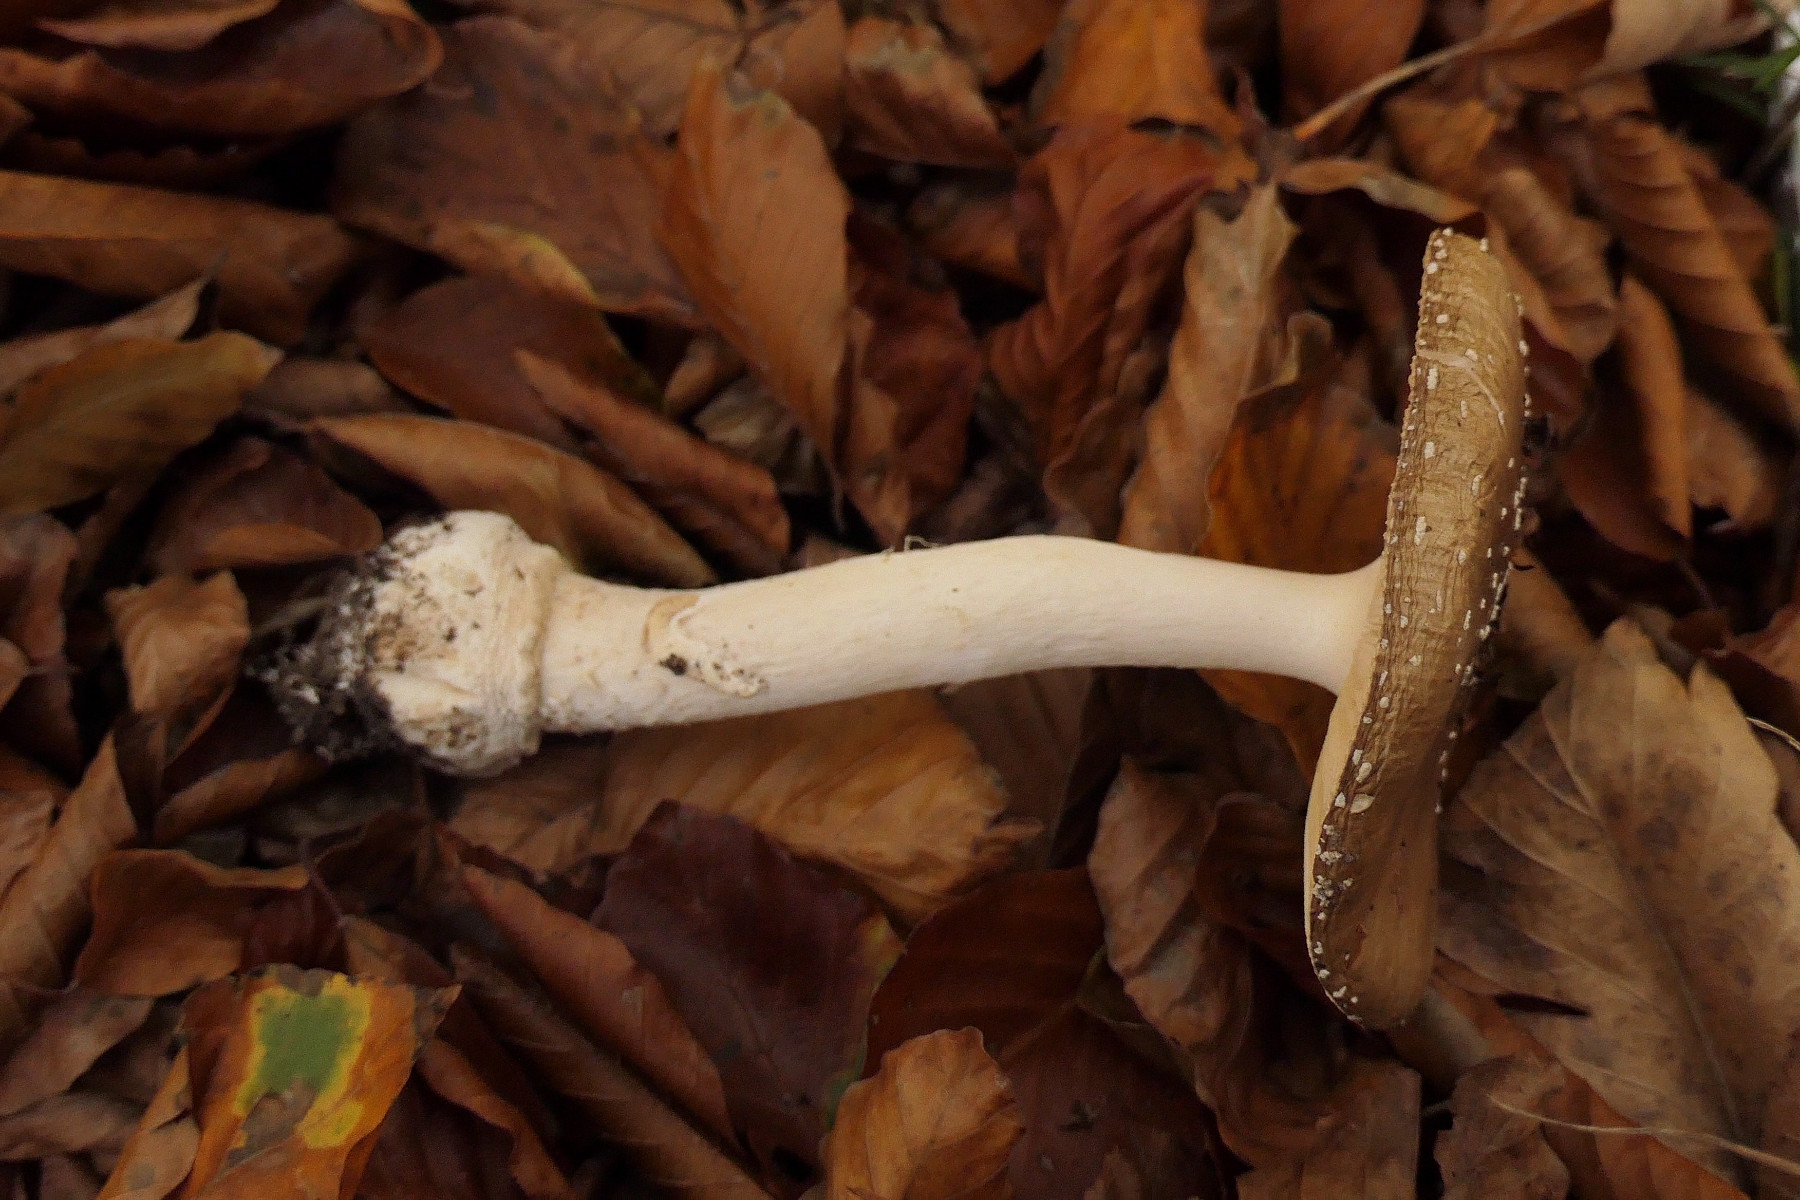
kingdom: Fungi
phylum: Basidiomycota
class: Agaricomycetes
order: Agaricales
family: Amanitaceae
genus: Amanita
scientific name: Amanita pantherina
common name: panter-fluesvamp
